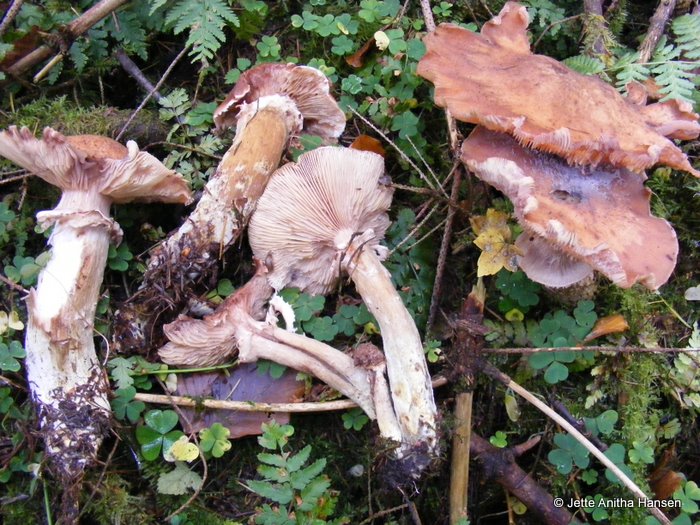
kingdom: Fungi
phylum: Basidiomycota
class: Agaricomycetes
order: Agaricales
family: Physalacriaceae
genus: Armillaria
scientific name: Armillaria ostoyae
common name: mørk honningsvamp
